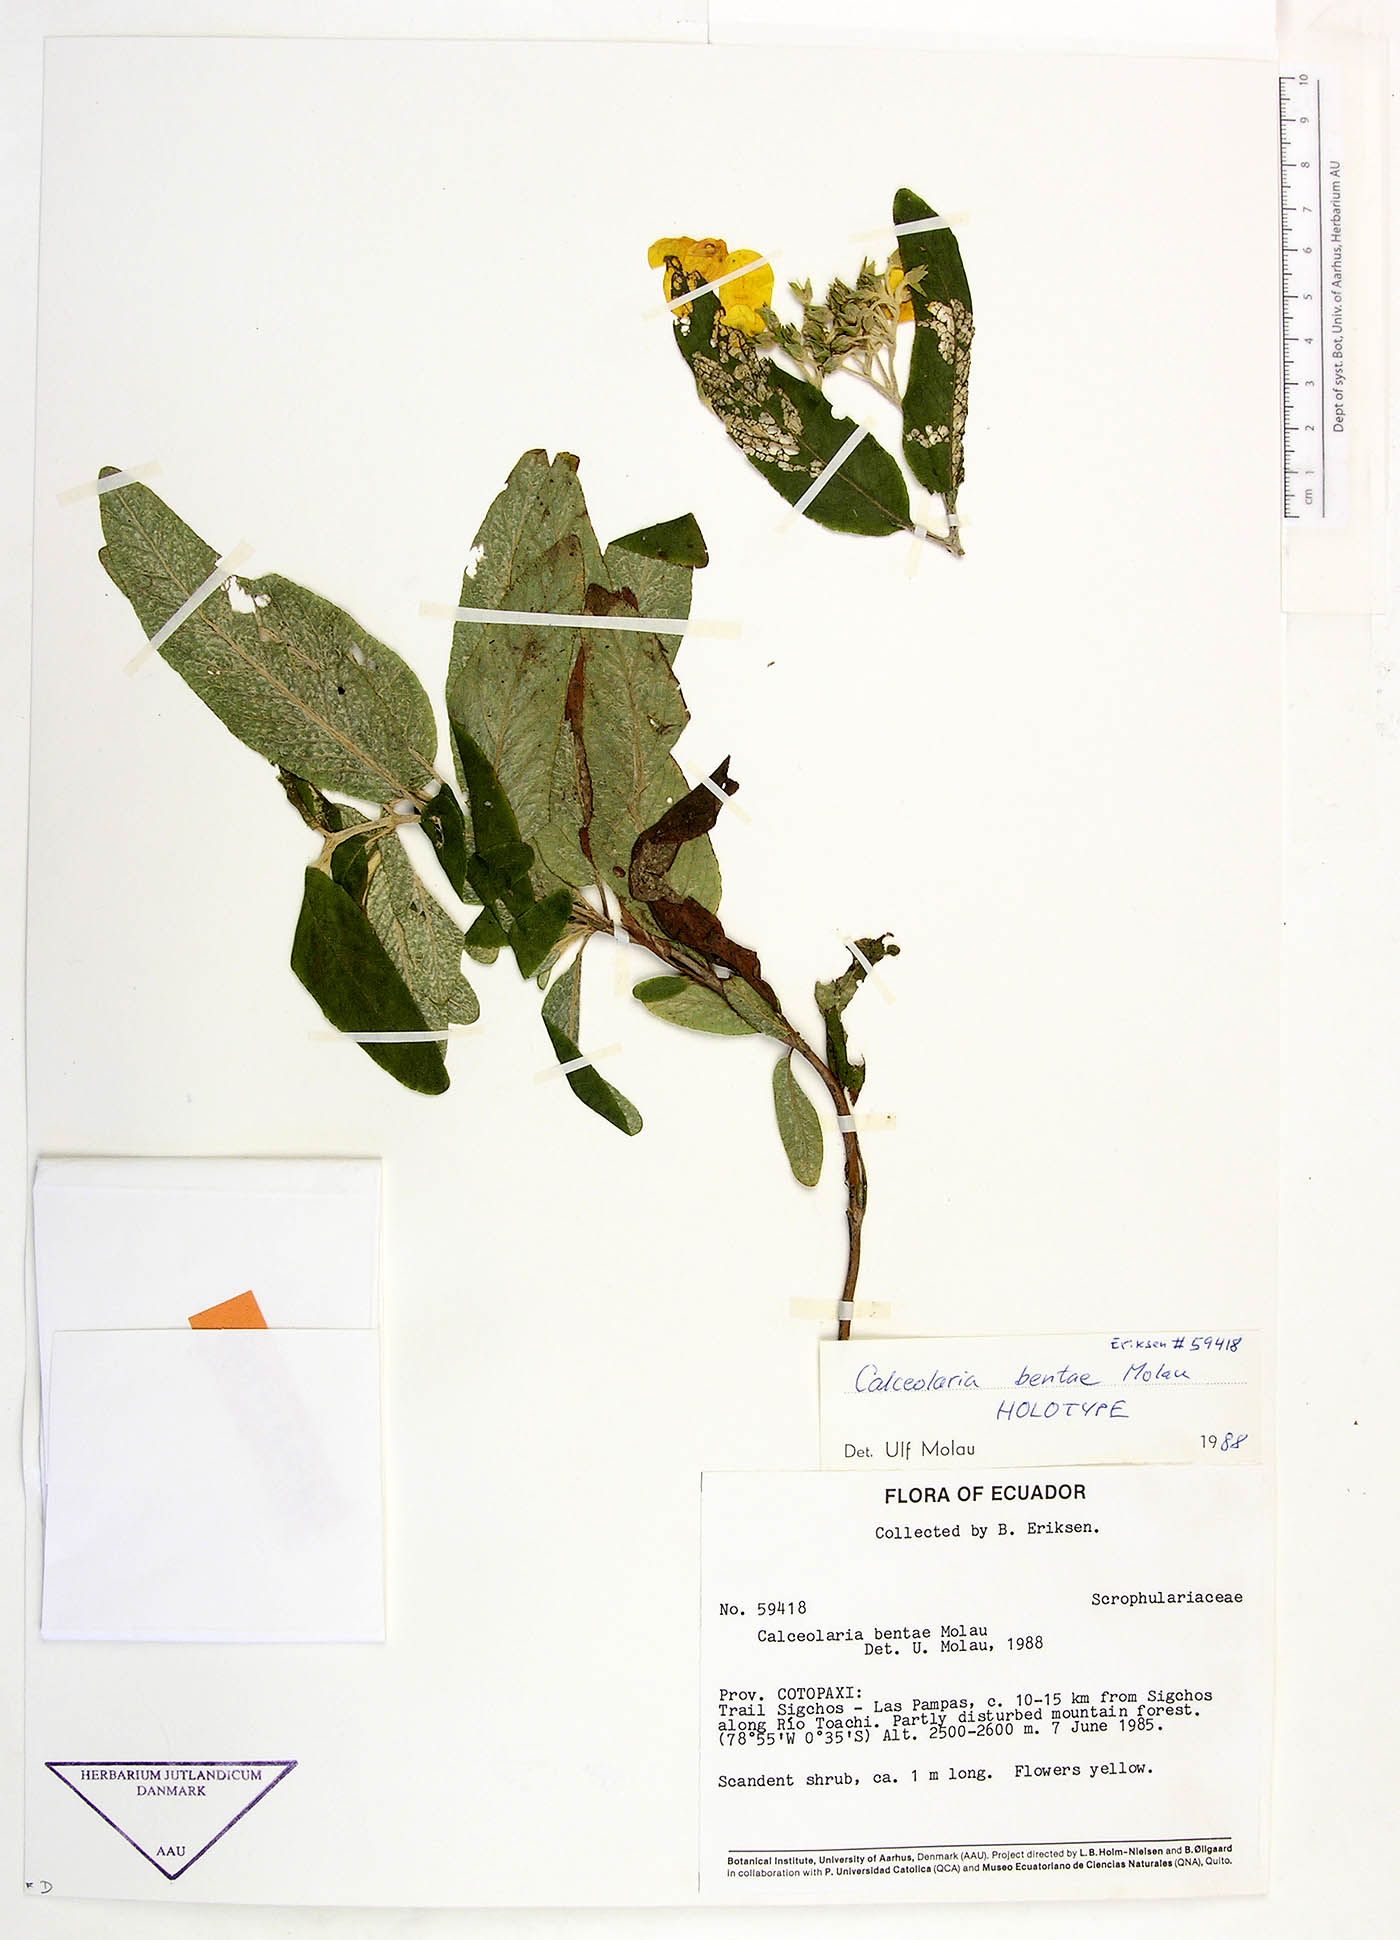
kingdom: Plantae
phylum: Tracheophyta
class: Magnoliopsida
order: Lamiales
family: Calceolariaceae
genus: Calceolaria
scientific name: Calceolaria bentae
